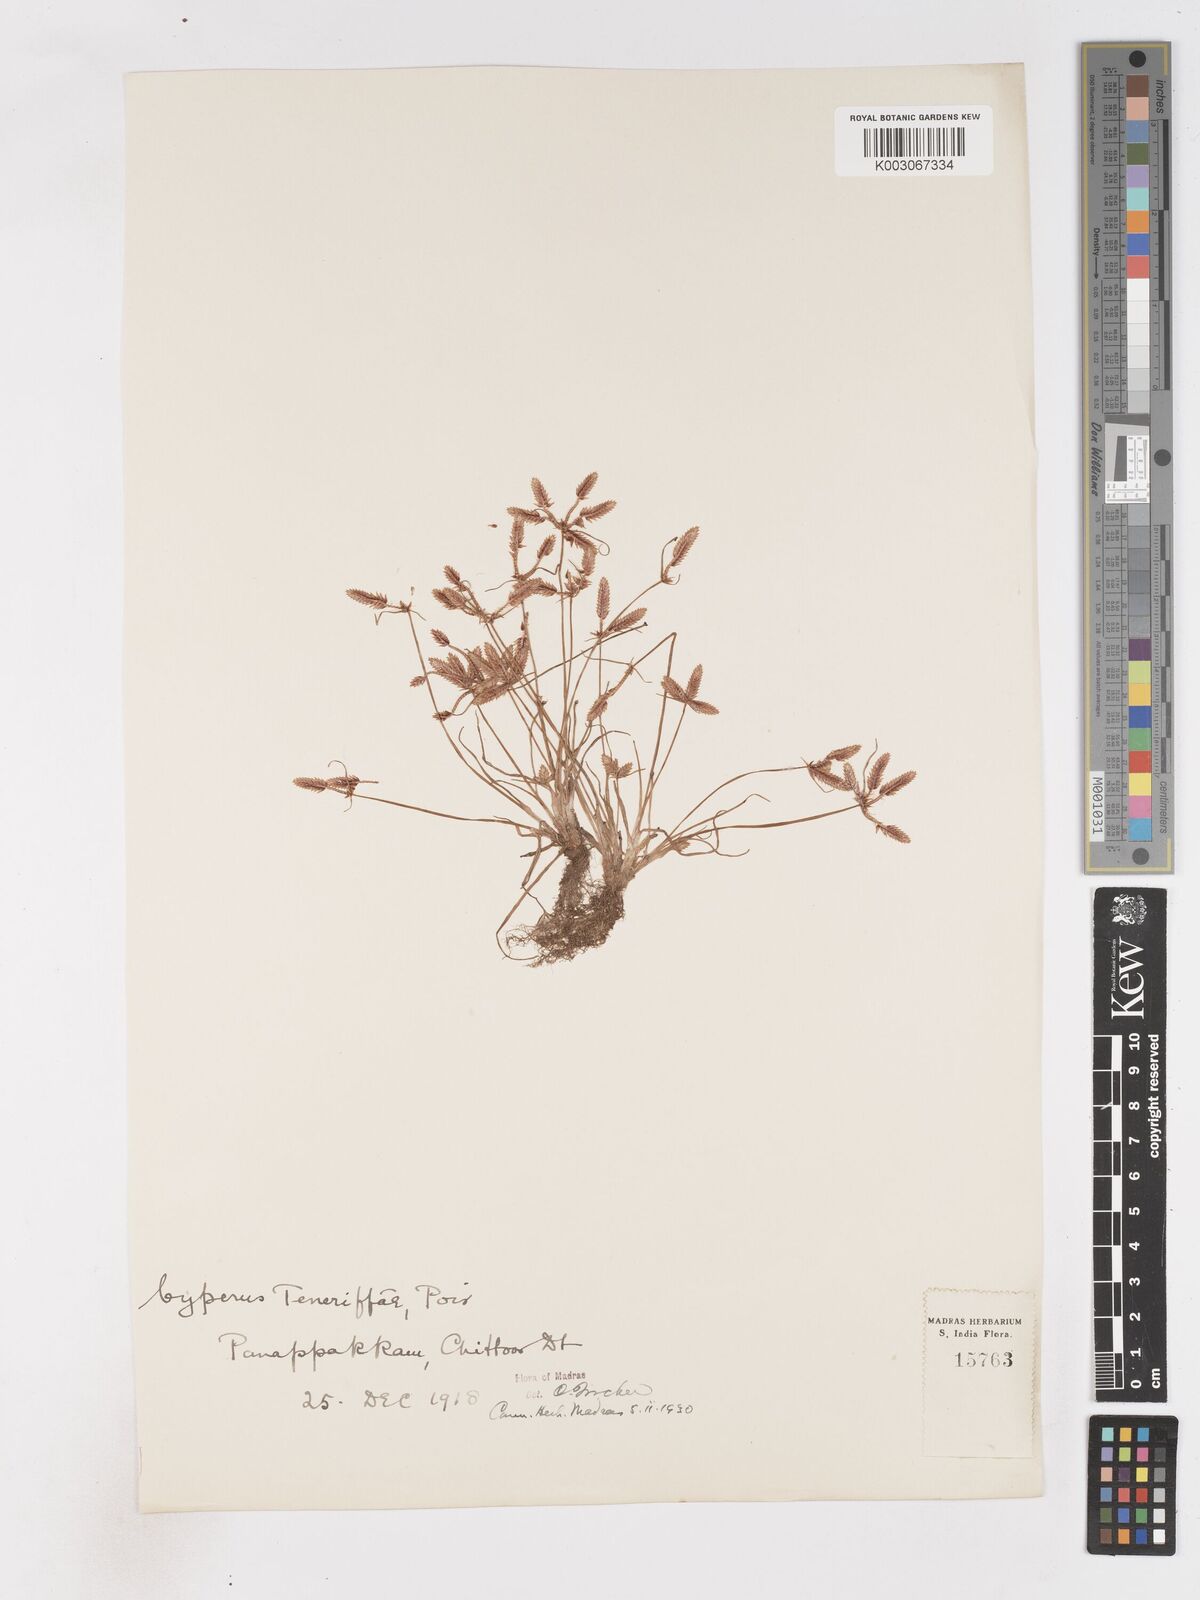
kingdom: Plantae
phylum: Tracheophyta
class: Liliopsida
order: Poales
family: Cyperaceae
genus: Cyperus
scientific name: Cyperus rubicundus
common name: Coco-grass
